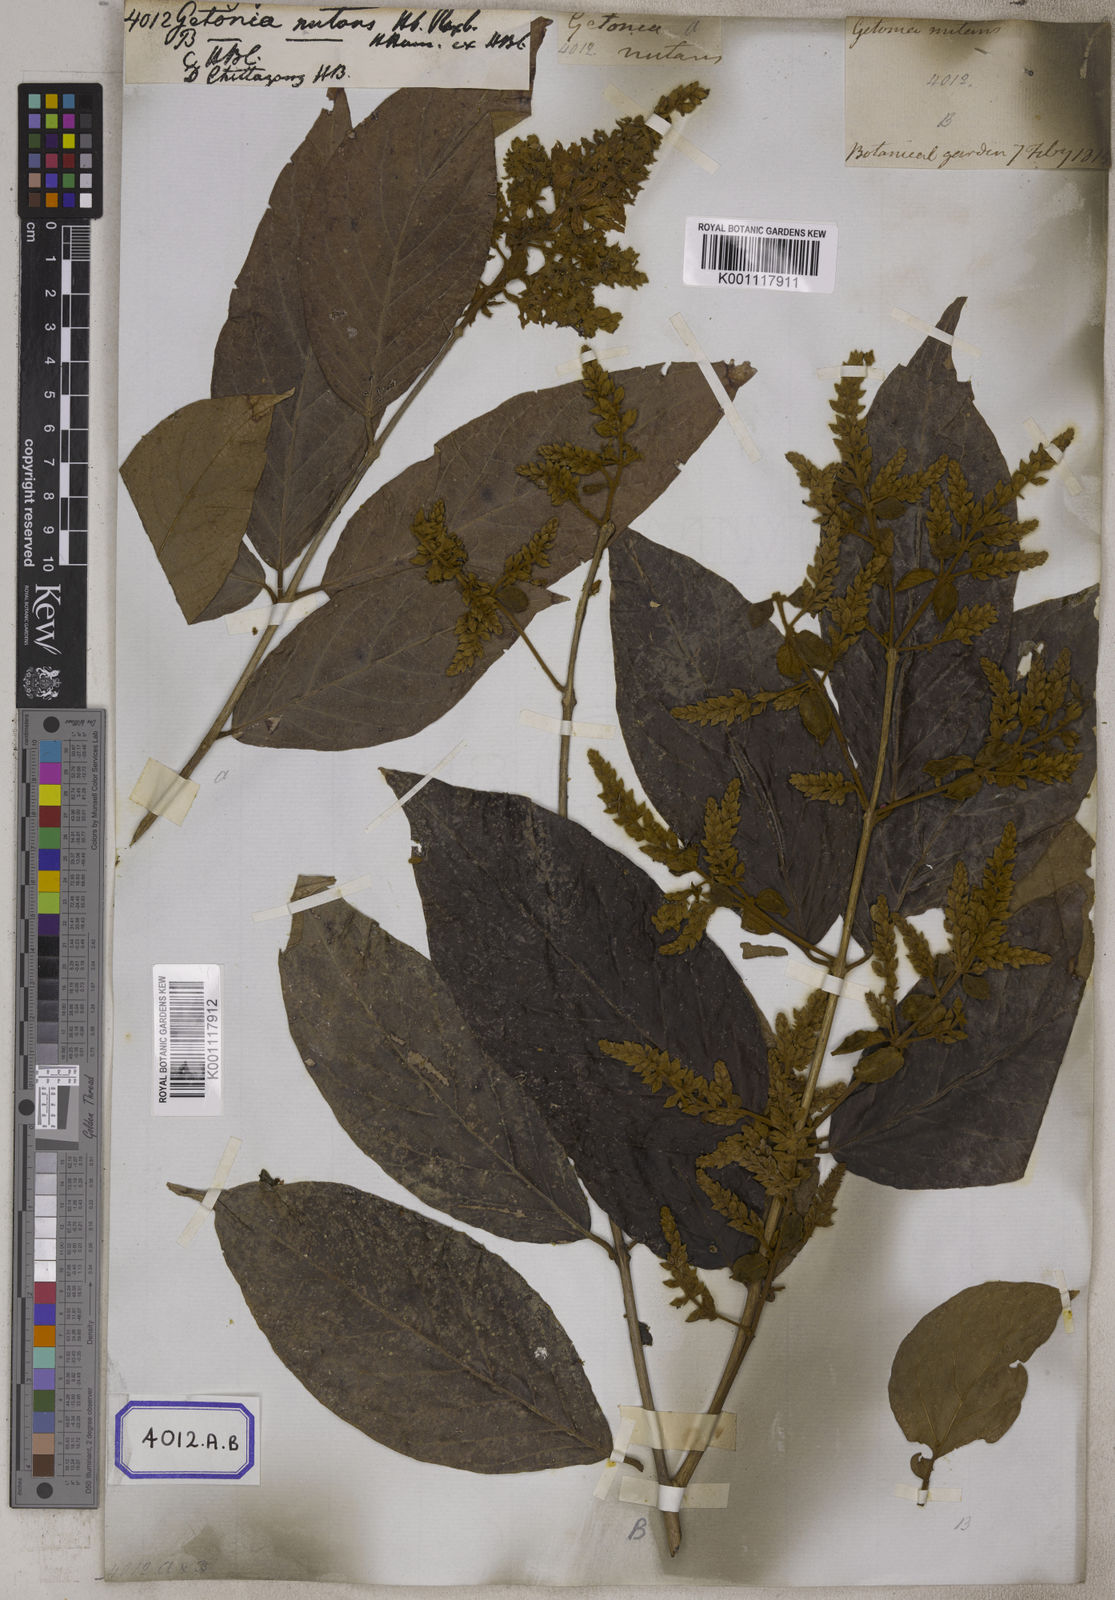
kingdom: Plantae
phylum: Tracheophyta
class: Magnoliopsida
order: Myrtales
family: Combretaceae
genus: Getonia
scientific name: Getonia floribunda
